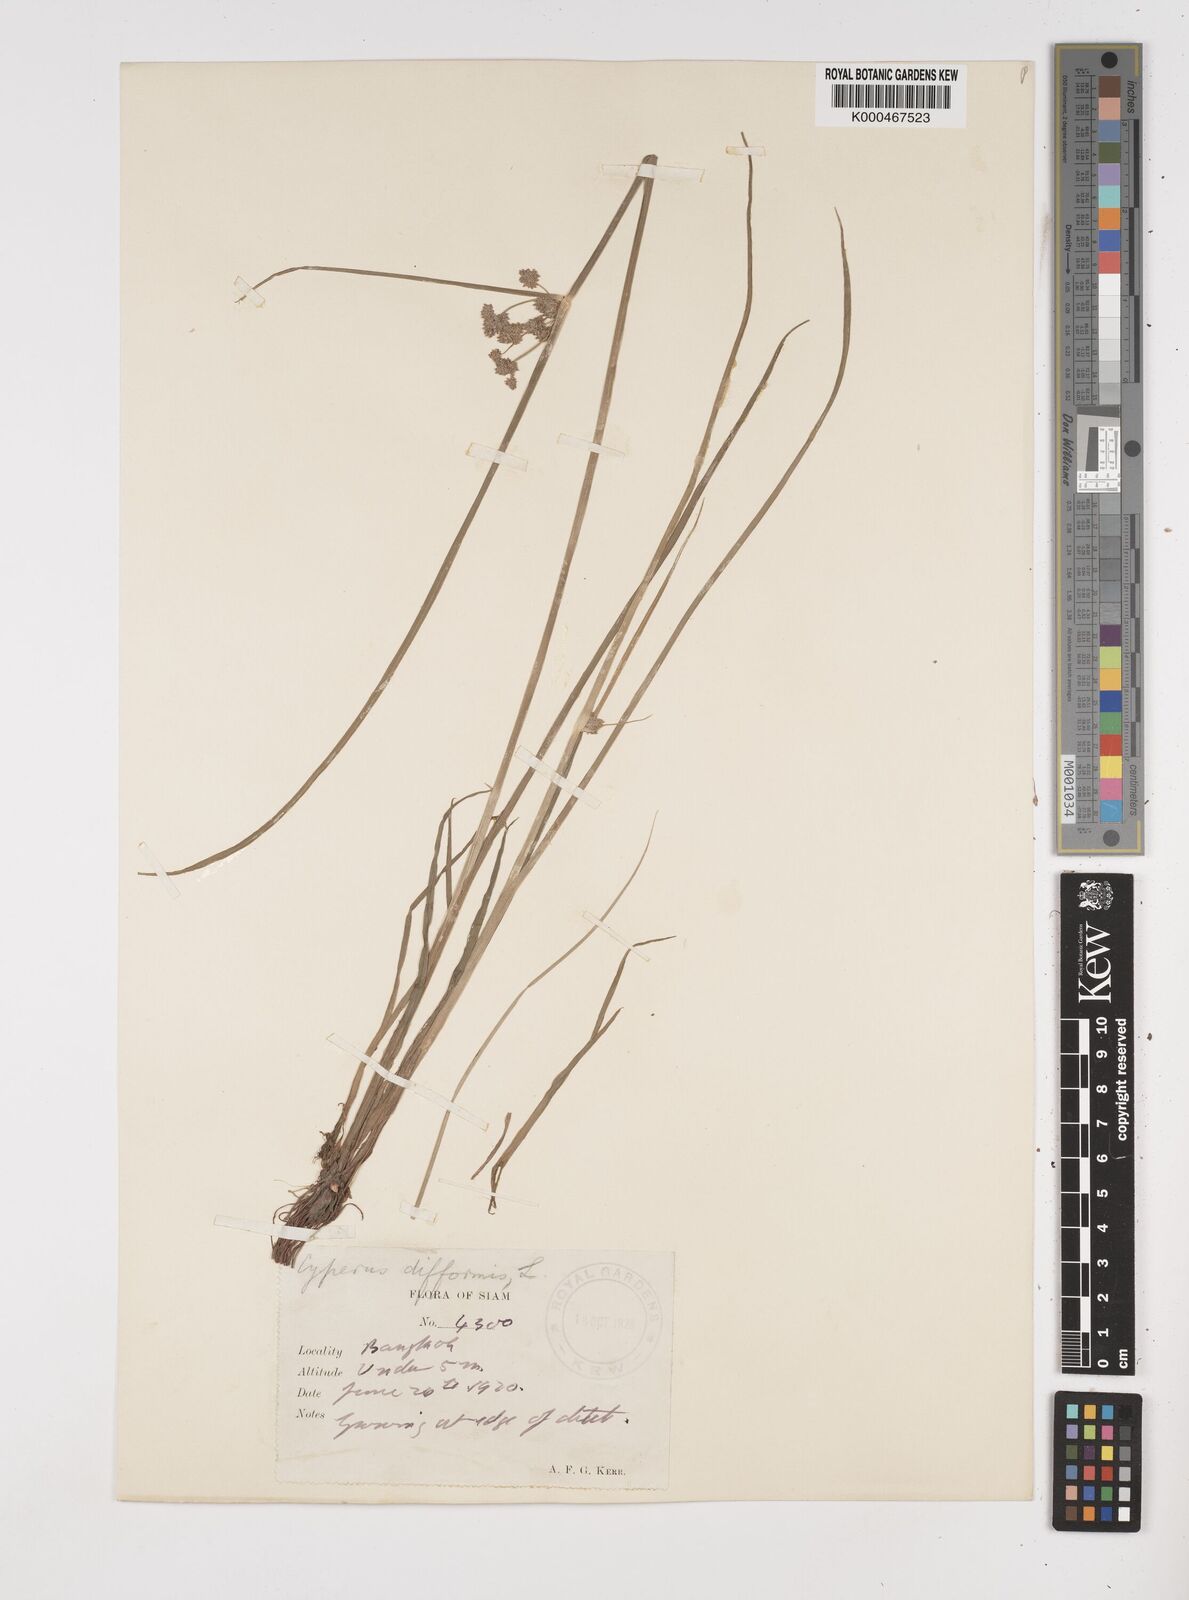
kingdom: Plantae
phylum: Tracheophyta
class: Liliopsida
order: Poales
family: Cyperaceae
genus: Cyperus
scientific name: Cyperus difformis
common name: Variable flatsedge
